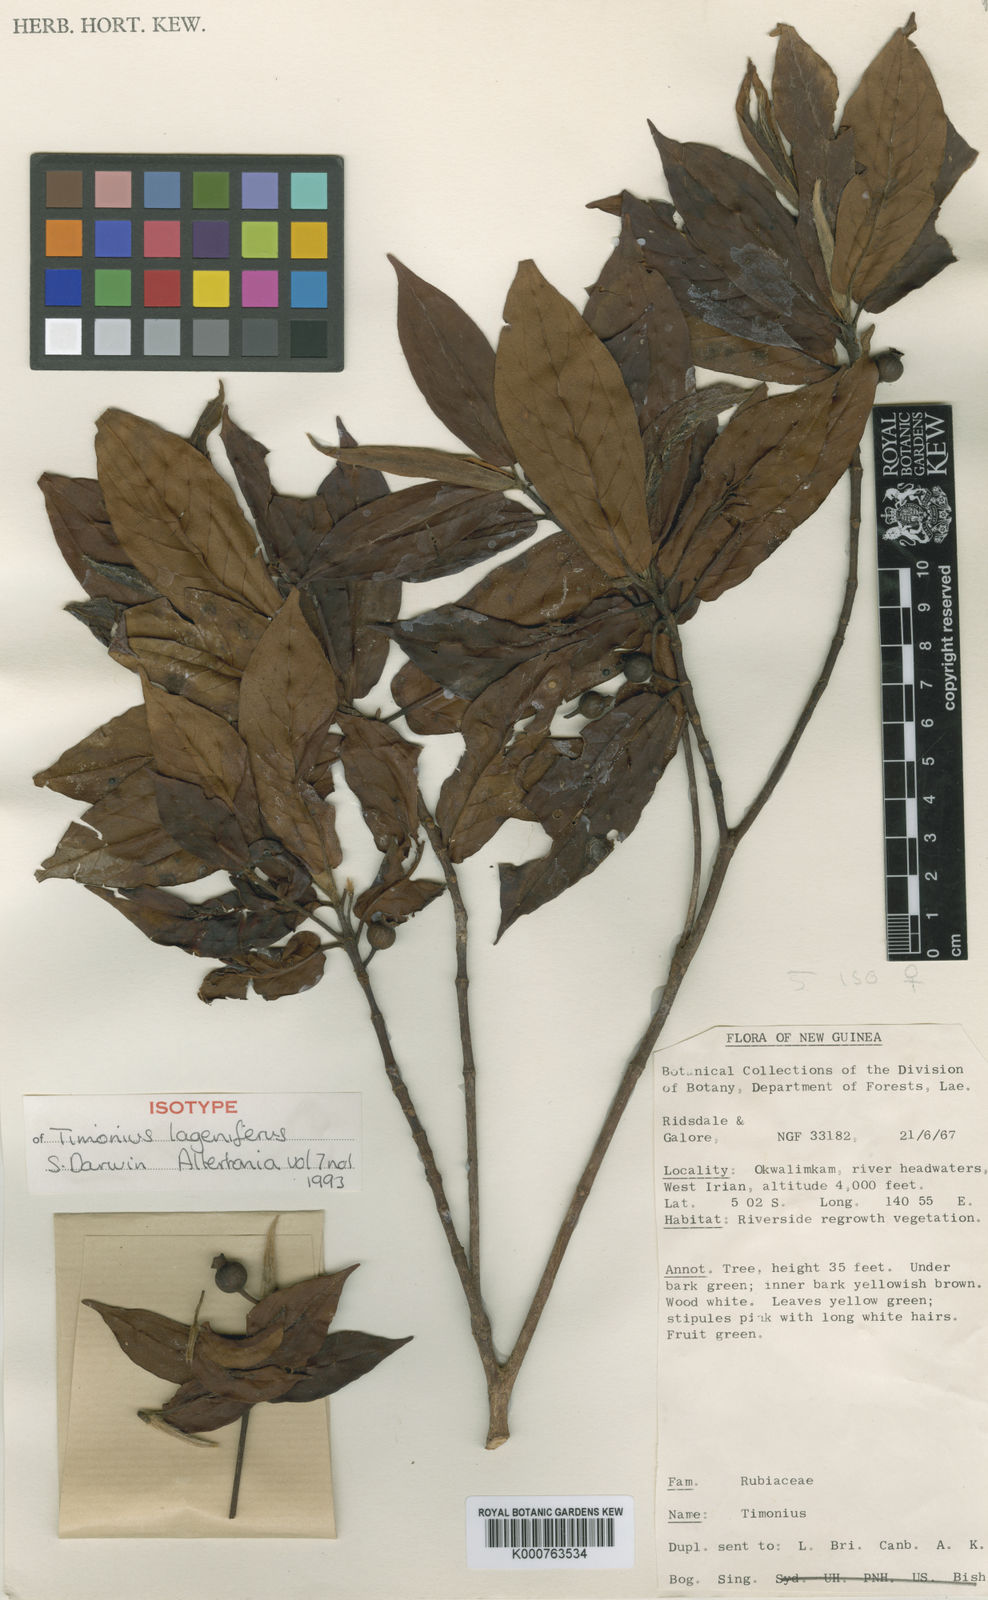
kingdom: Plantae
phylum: Tracheophyta
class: Magnoliopsida
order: Gentianales
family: Rubiaceae
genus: Timonius
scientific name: Timonius
